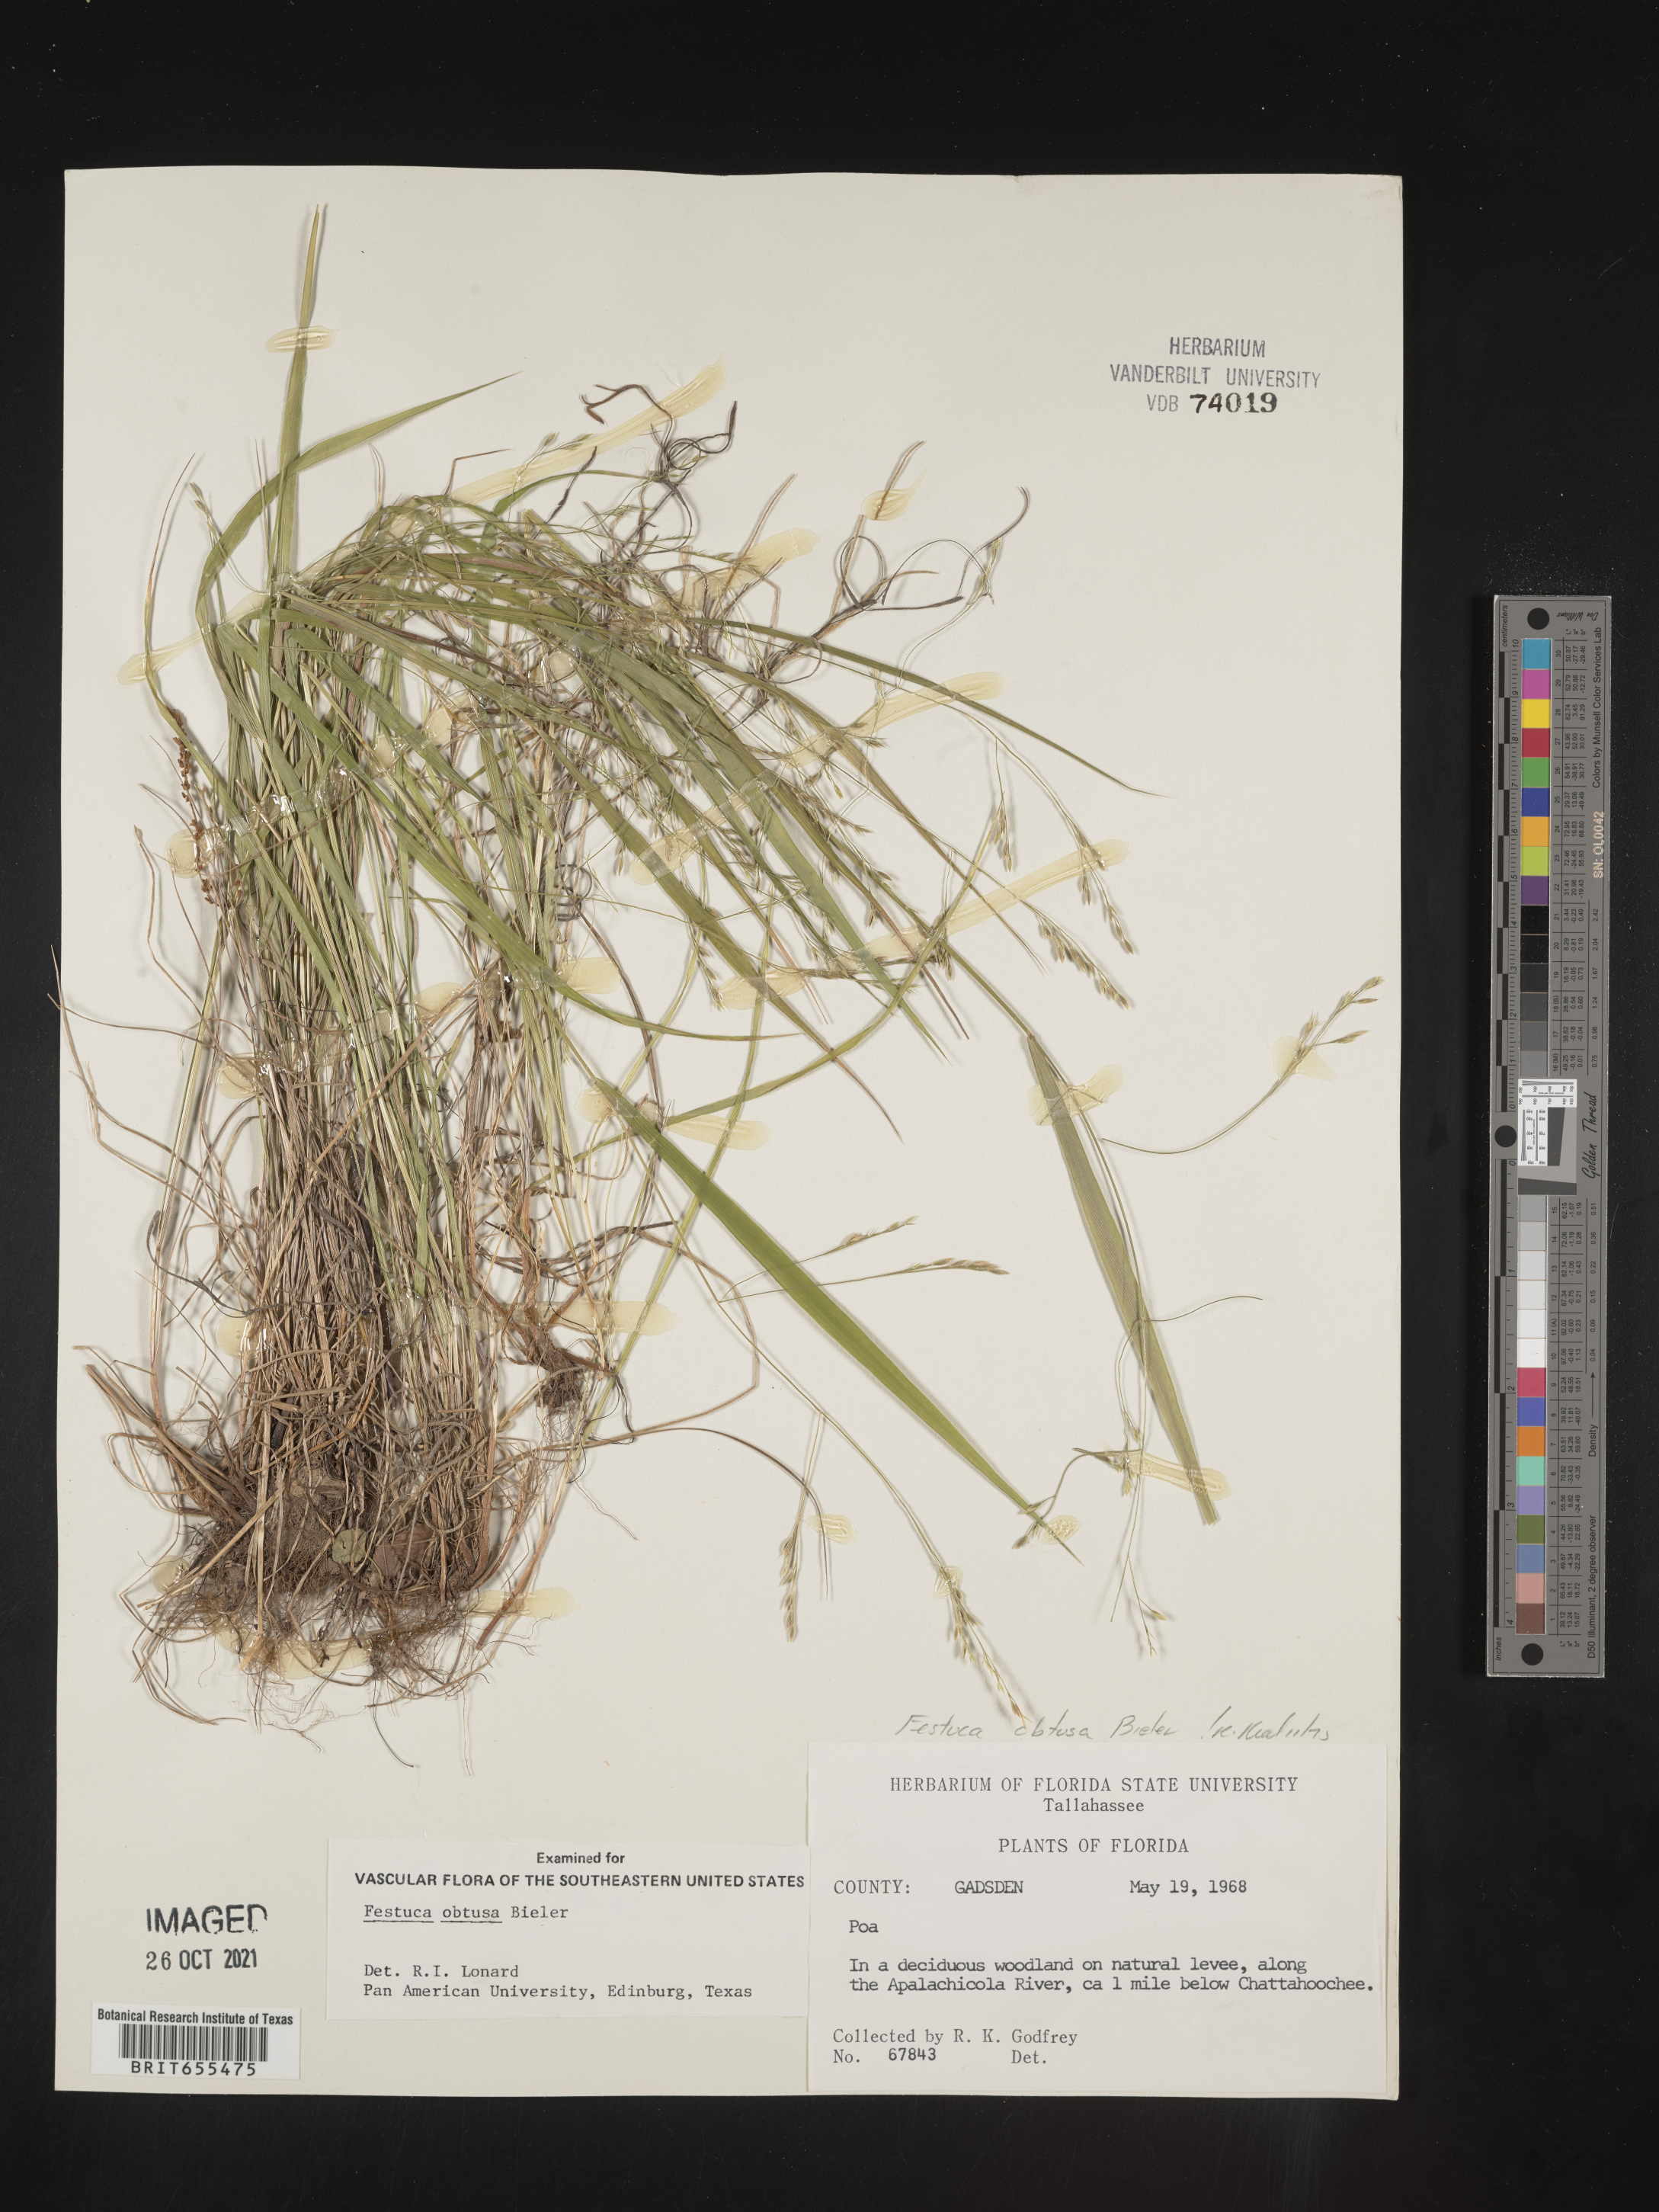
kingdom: Plantae
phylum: Tracheophyta
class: Liliopsida
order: Poales
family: Poaceae
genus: Festuca
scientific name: Festuca
